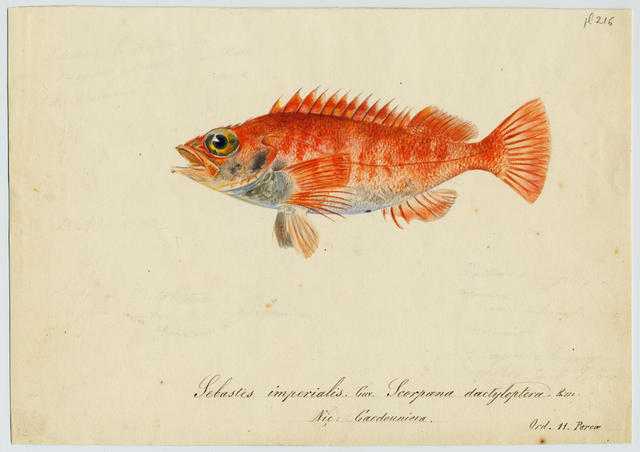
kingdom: Animalia
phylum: Chordata
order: Scorpaeniformes
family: Sebastidae
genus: Helicolenus
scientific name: Helicolenus dactylopterus
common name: Blackbelly rosefish
